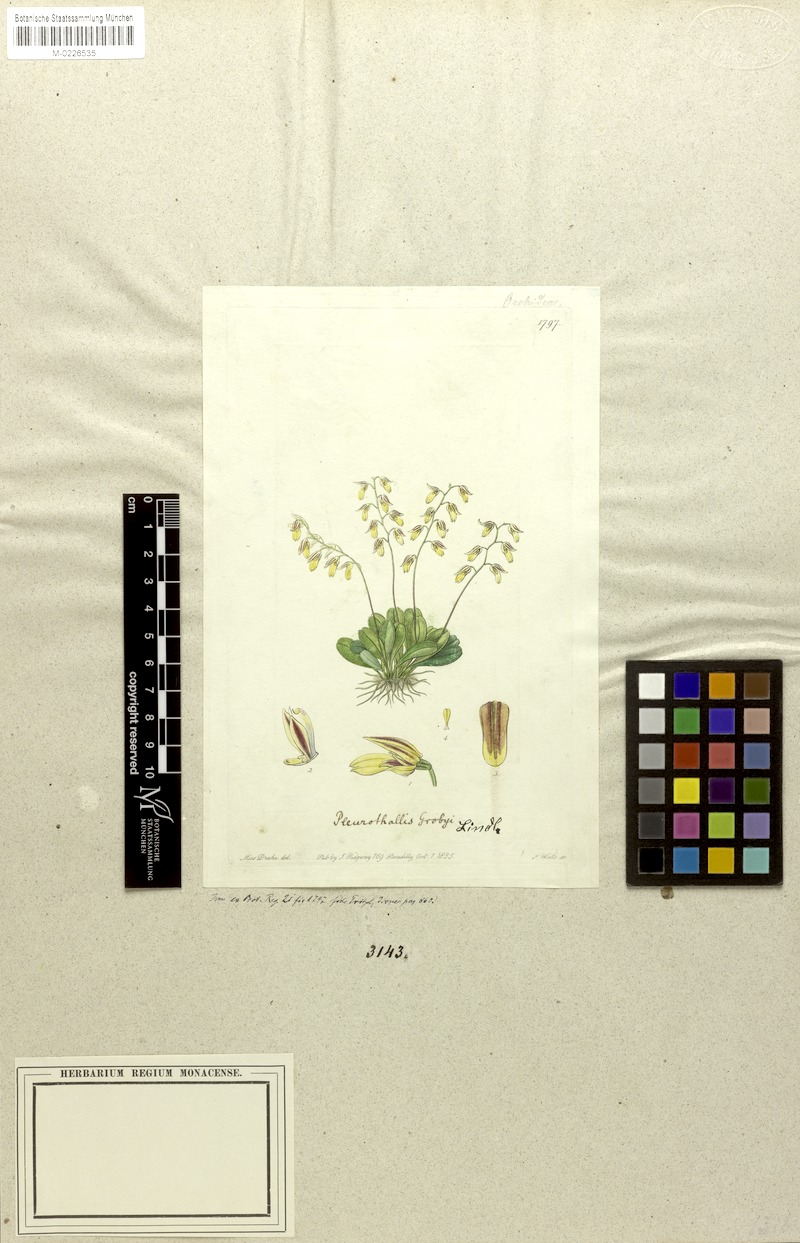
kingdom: Plantae
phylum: Tracheophyta
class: Liliopsida
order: Asparagales
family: Orchidaceae
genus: Specklinia
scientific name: Specklinia grobyi
